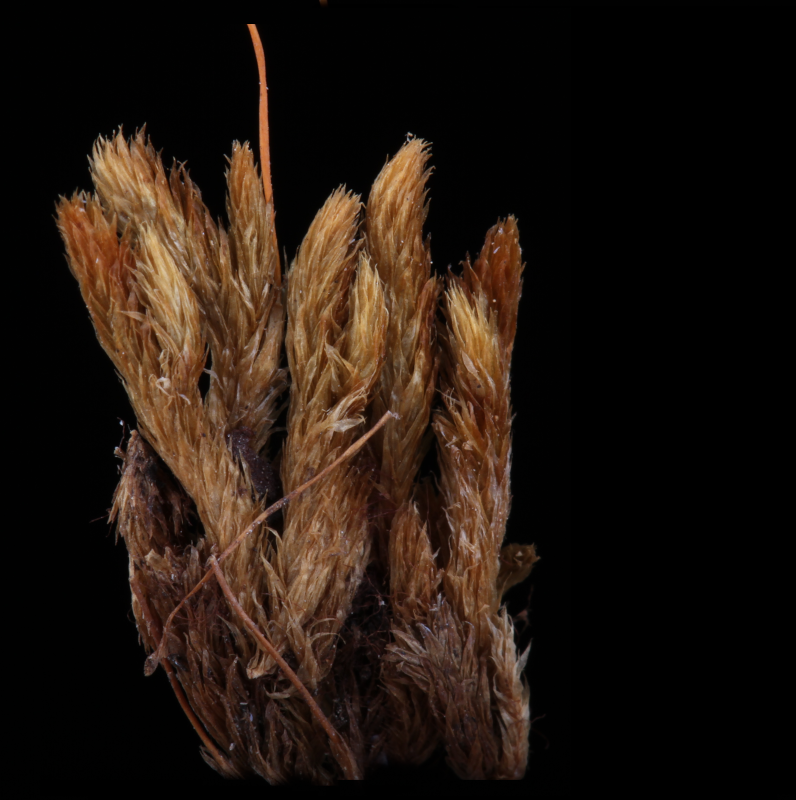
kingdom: Plantae
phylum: Bryophyta
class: Bryopsida
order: Hypnales
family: Entodontaceae
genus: Mesonodon
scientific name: Mesonodon flavescens
